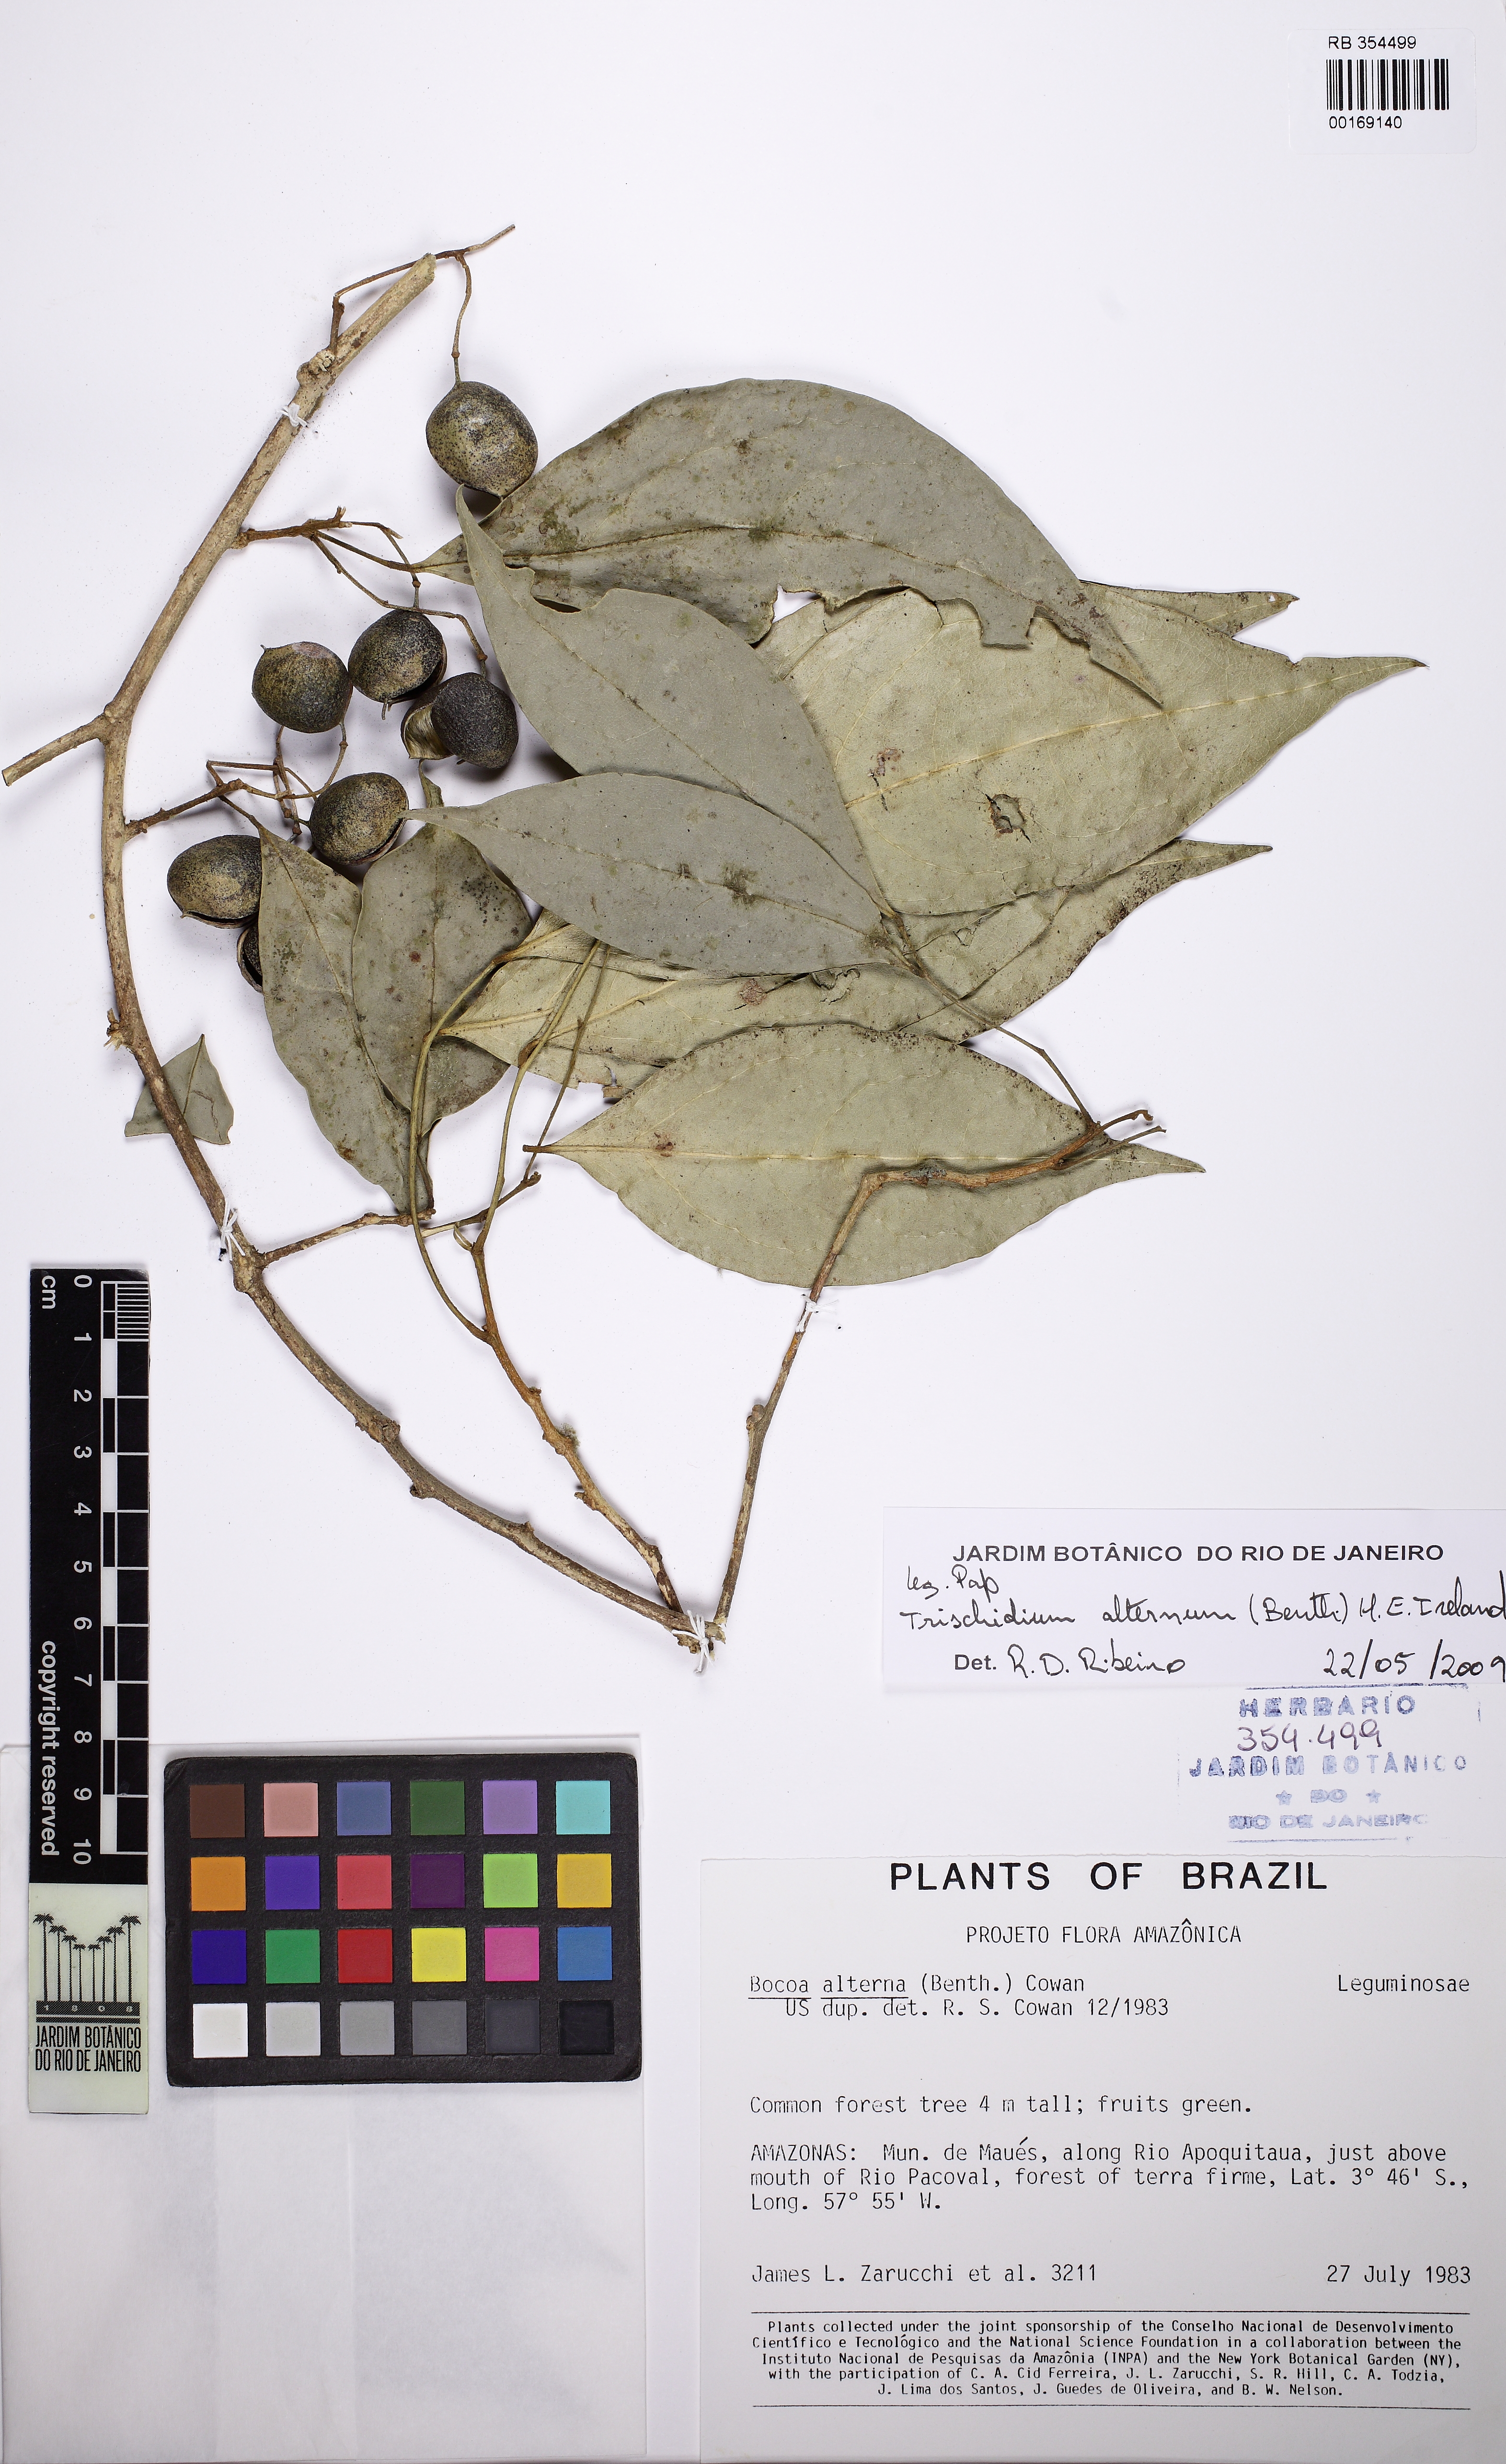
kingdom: Plantae
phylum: Tracheophyta
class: Magnoliopsida
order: Fabales
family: Fabaceae
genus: Trischidium
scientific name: Trischidium alternum
